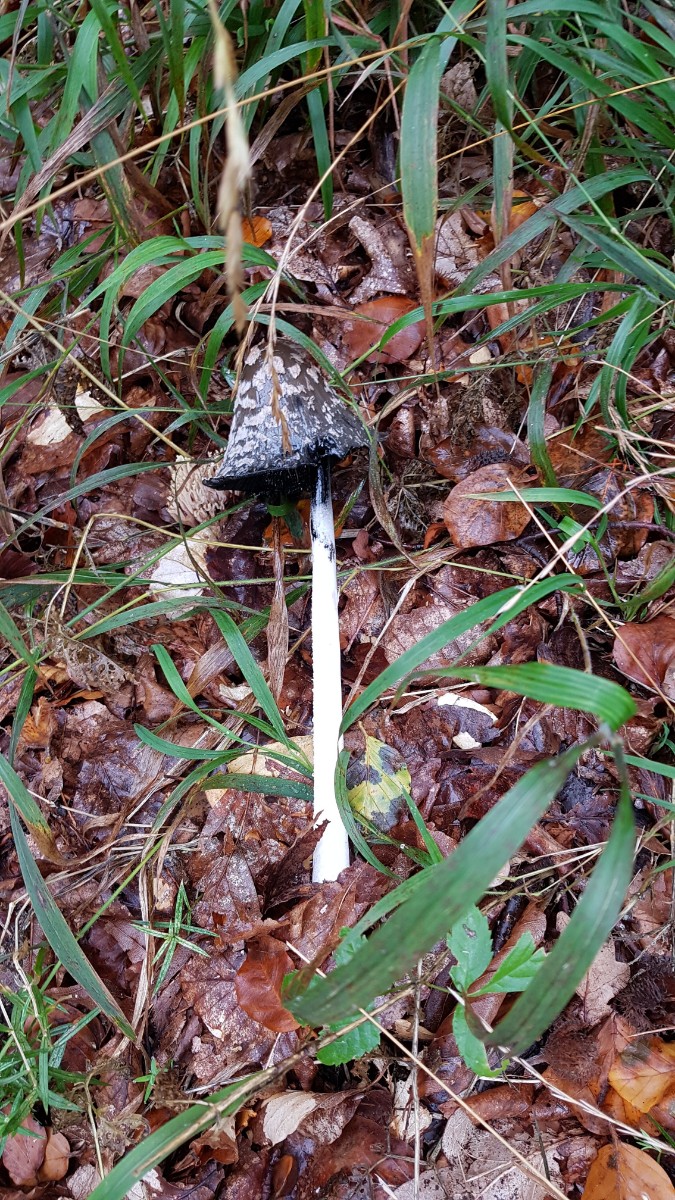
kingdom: Fungi
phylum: Basidiomycota
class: Agaricomycetes
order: Agaricales
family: Psathyrellaceae
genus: Coprinopsis
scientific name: Coprinopsis picacea
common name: skade-blækhat
